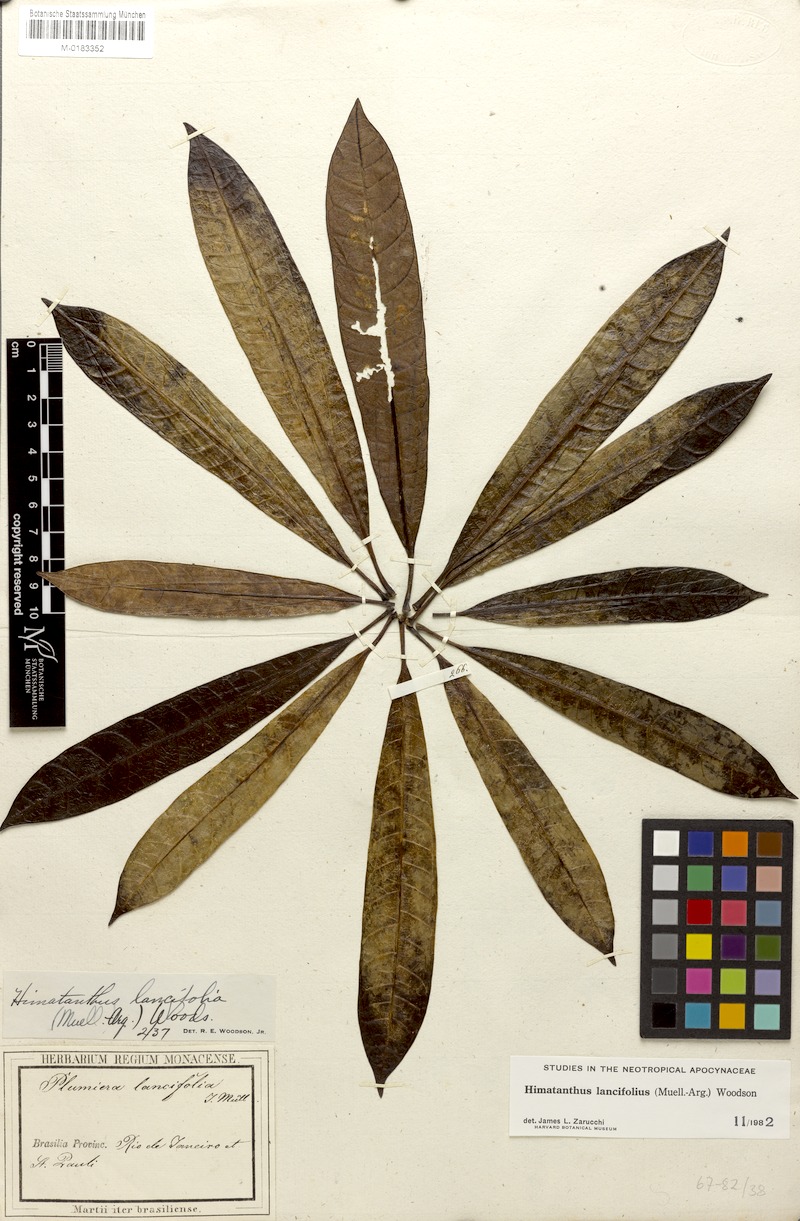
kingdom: Plantae
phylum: Tracheophyta
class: Magnoliopsida
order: Gentianales
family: Apocynaceae
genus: Himatanthus
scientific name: Himatanthus bracteatus
